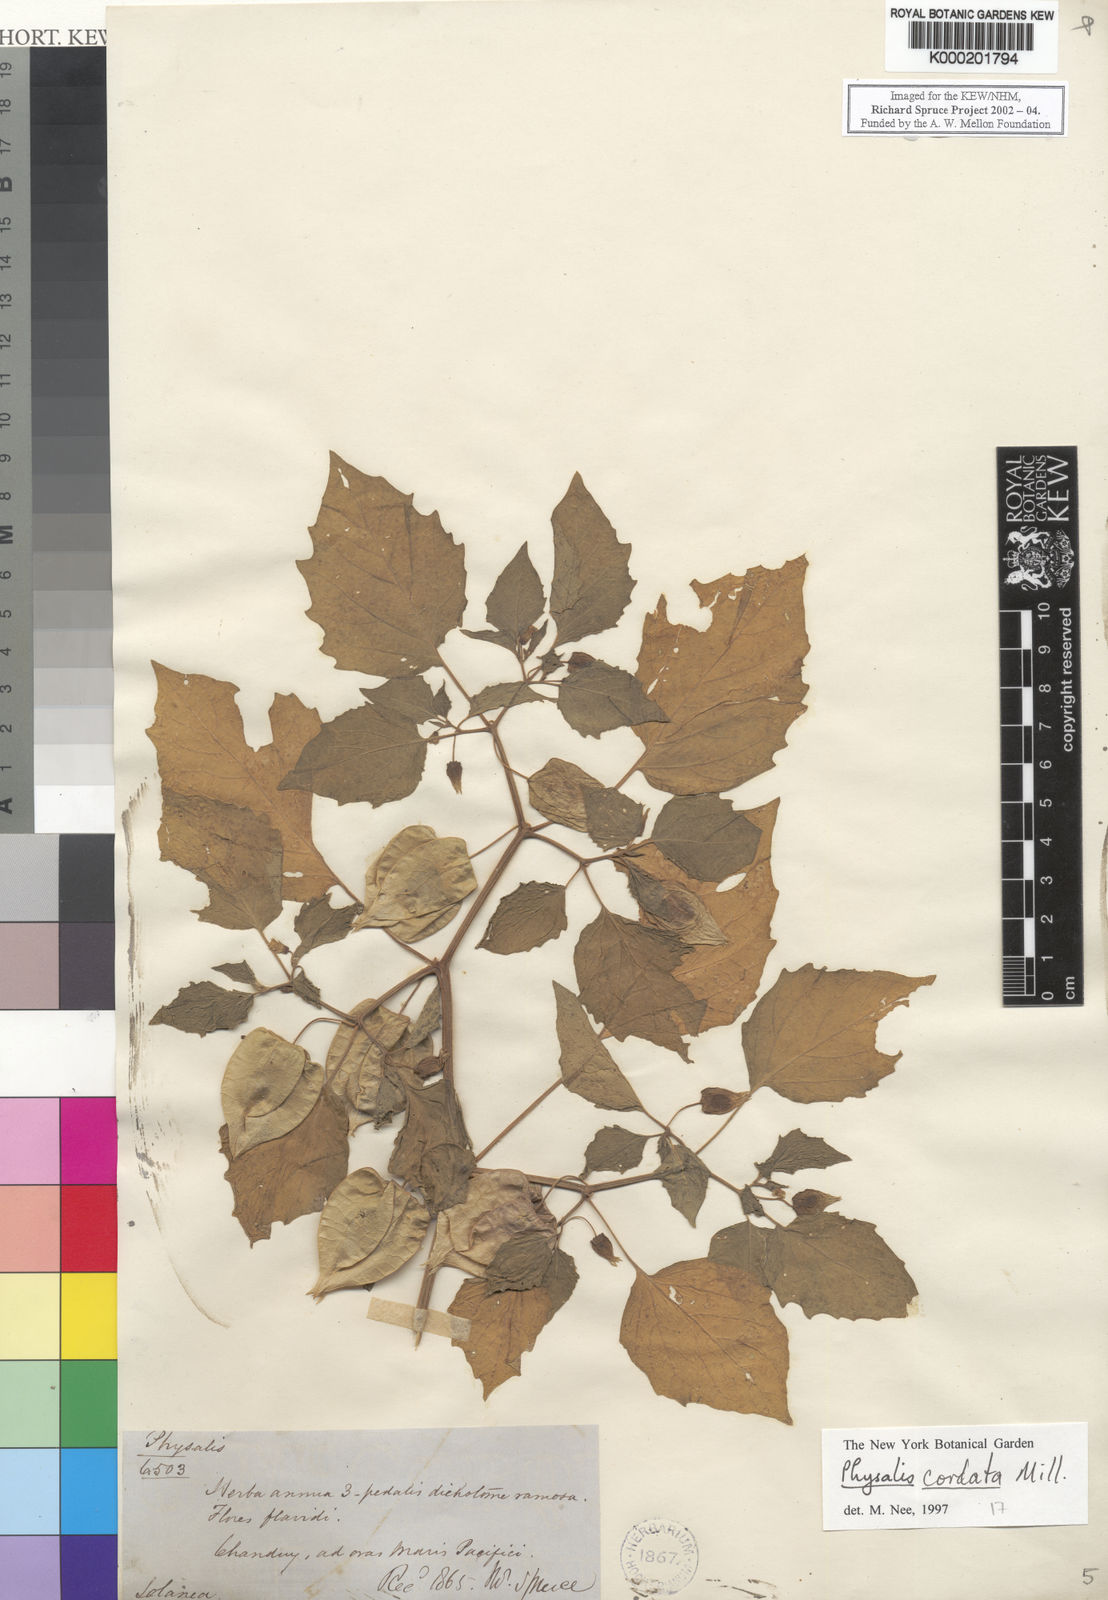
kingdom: Plantae
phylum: Tracheophyta
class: Magnoliopsida
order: Solanales
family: Solanaceae
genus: Physalis
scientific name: Physalis cordata
